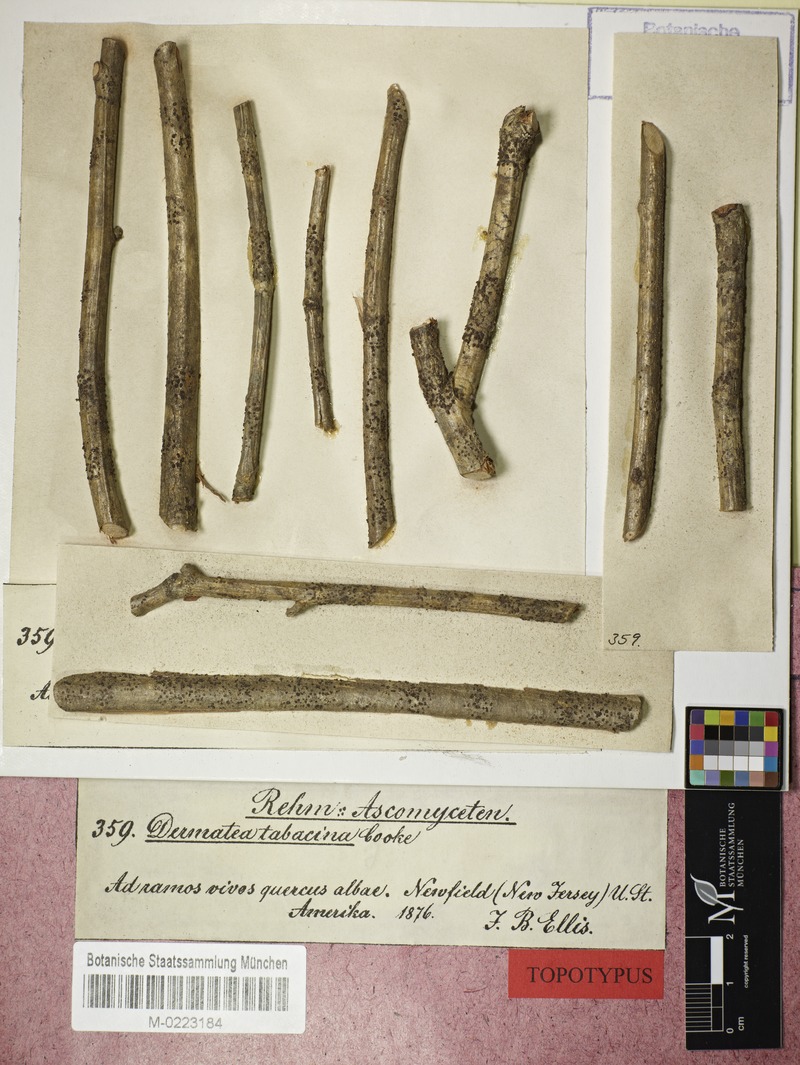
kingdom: Fungi
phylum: Ascomycota
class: Leotiomycetes
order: Helotiales
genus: Dermateopsis
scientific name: Dermateopsis tabacina
